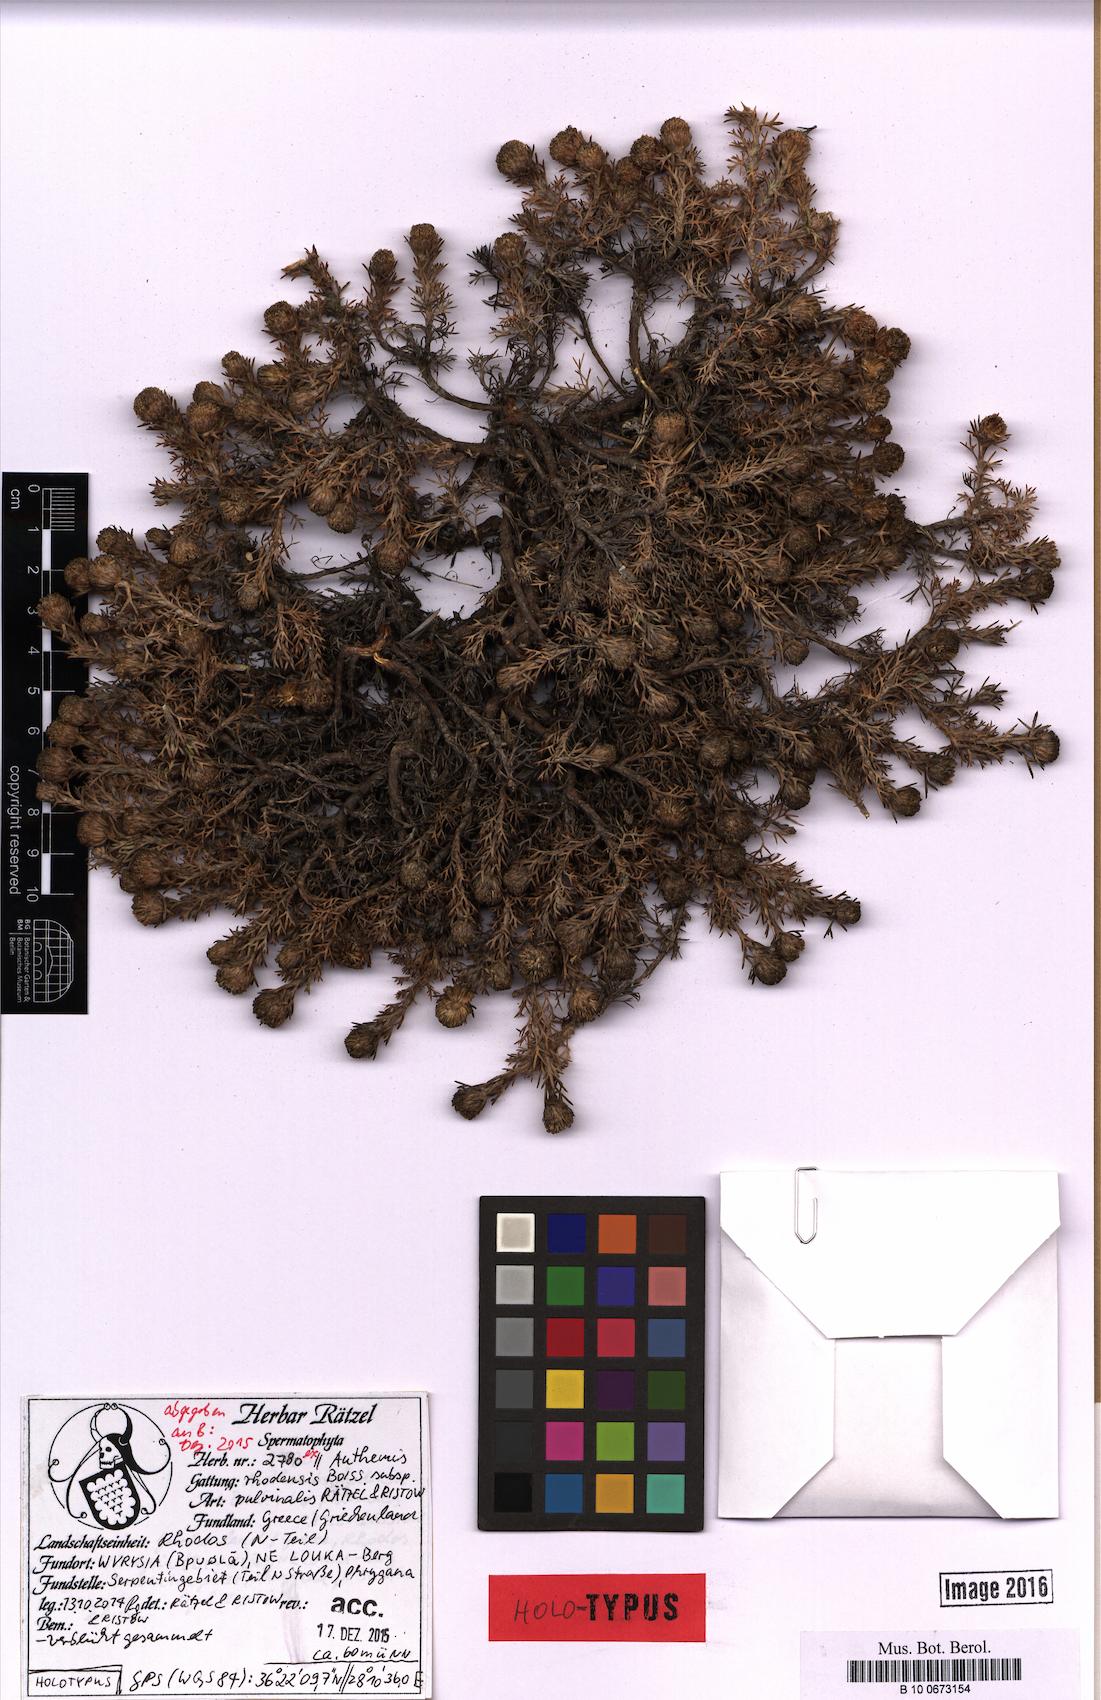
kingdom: Plantae
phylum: Tracheophyta
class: Magnoliopsida
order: Asterales
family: Asteraceae
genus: Anthemis
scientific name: Anthemis rhodensis
